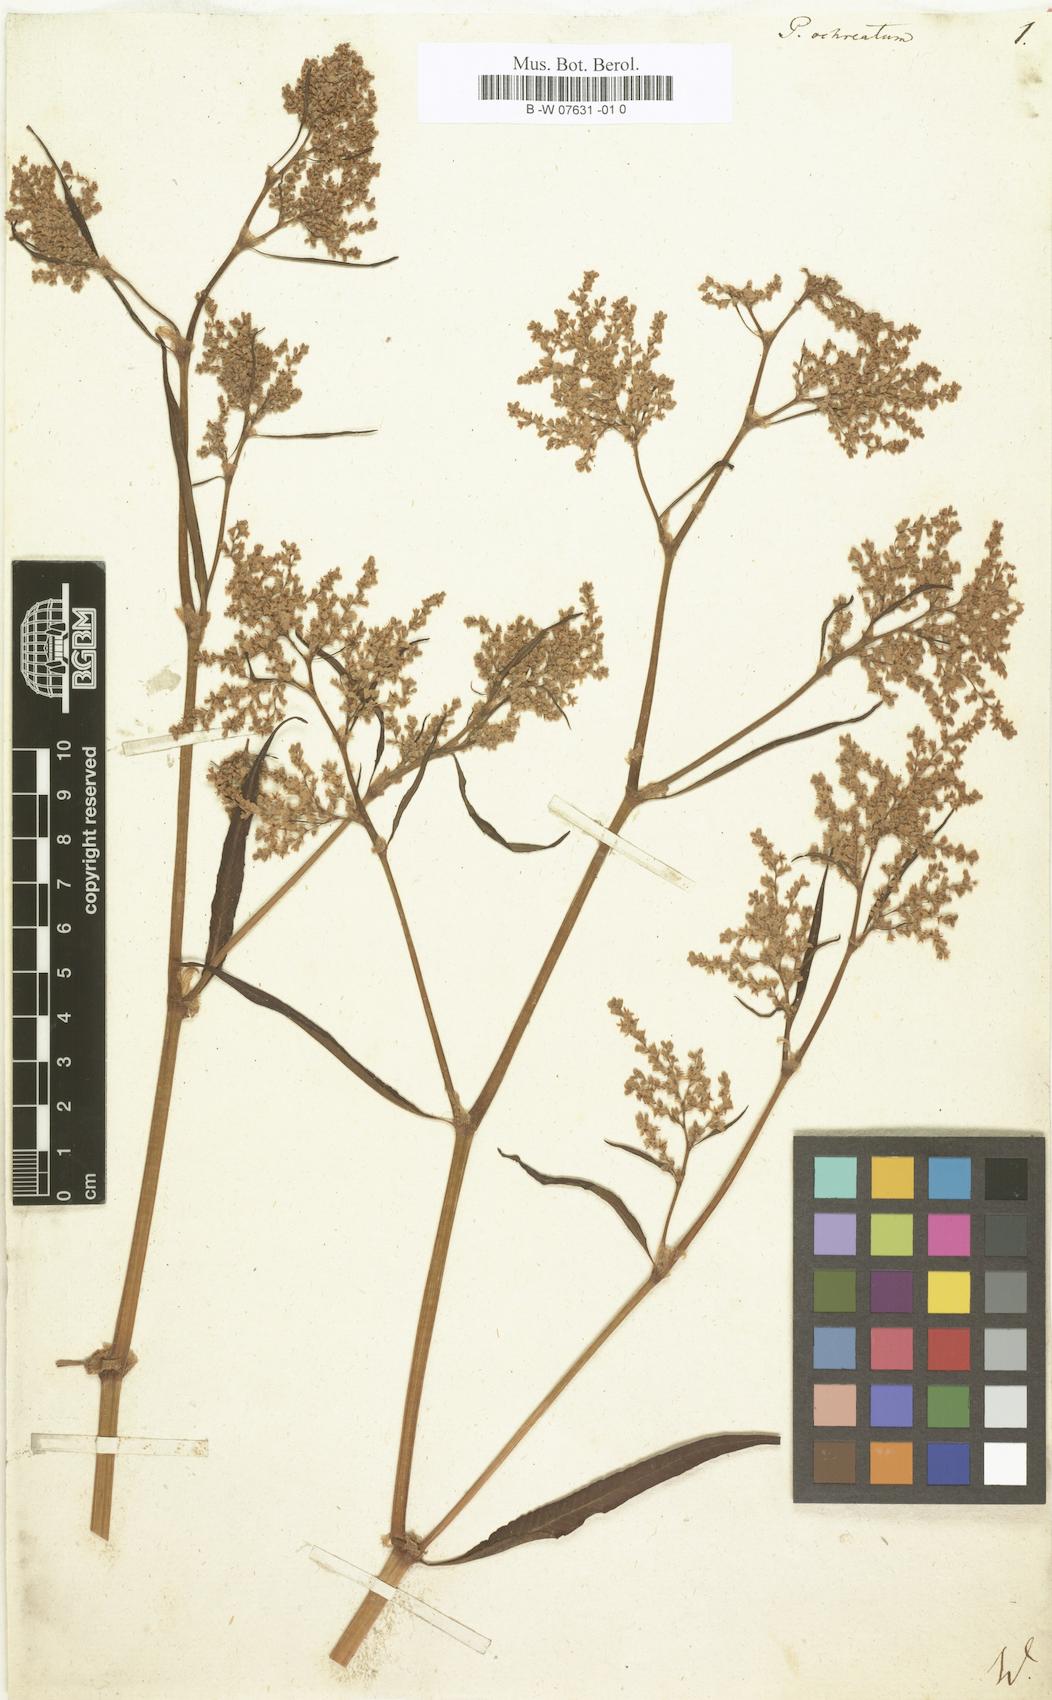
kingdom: Plantae
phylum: Tracheophyta
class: Magnoliopsida
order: Caryophyllales
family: Polygonaceae
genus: Koenigia
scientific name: Koenigia ocreata
